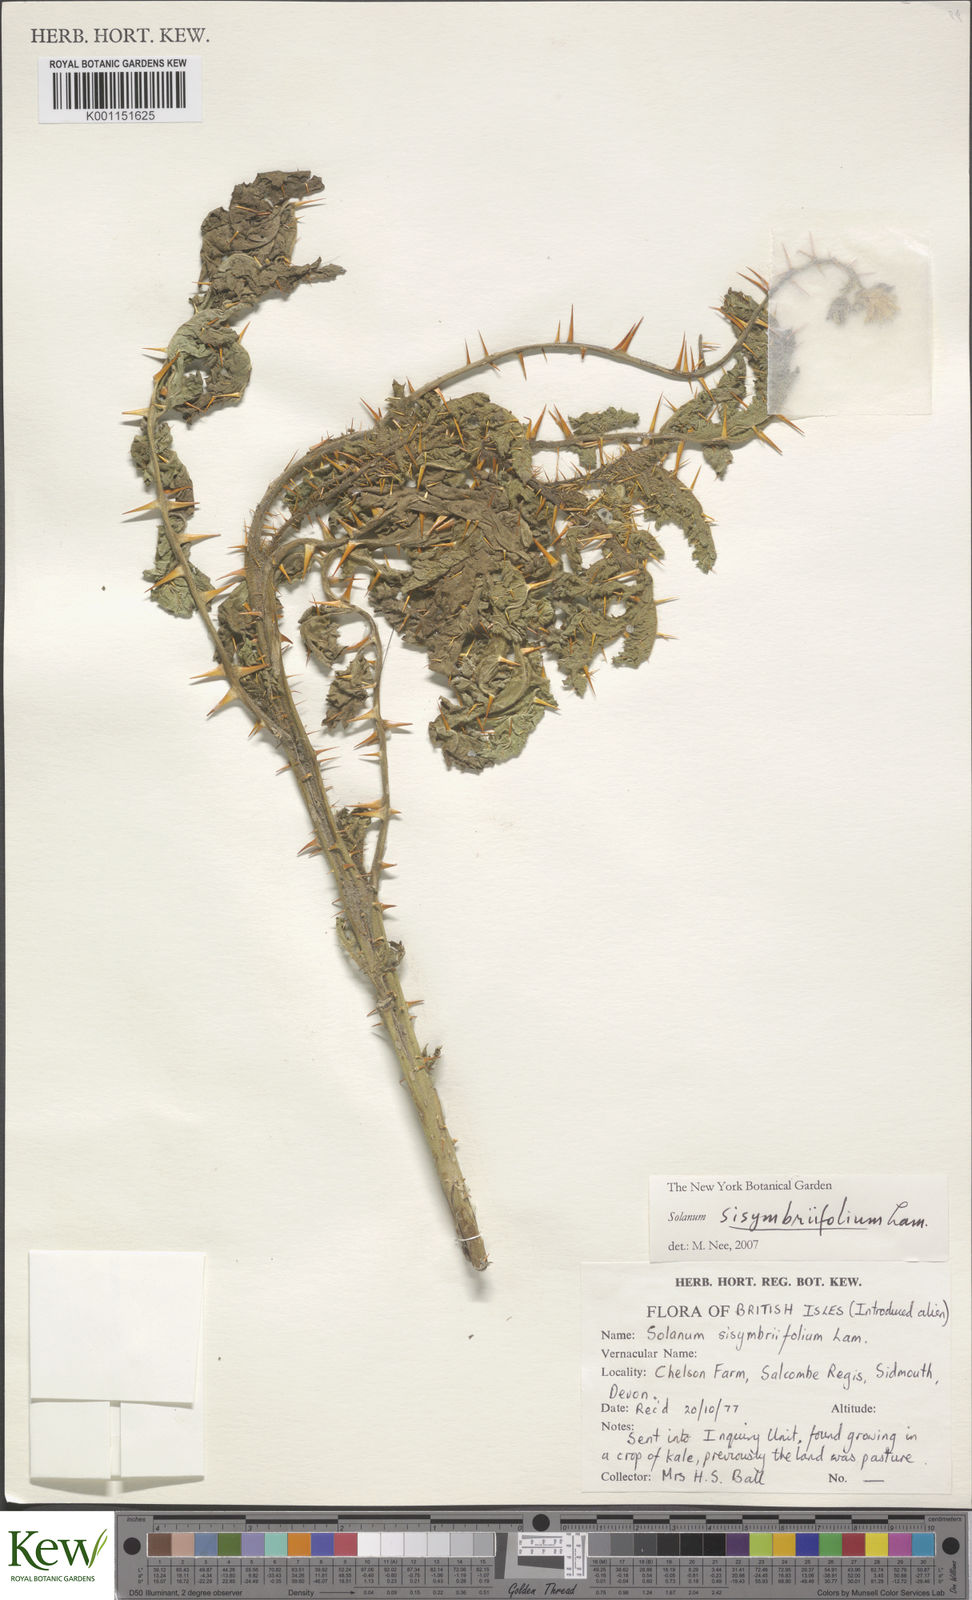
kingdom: Plantae
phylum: Tracheophyta
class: Magnoliopsida
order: Solanales
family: Solanaceae
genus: Solanum
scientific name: Solanum sisymbriifolium
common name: Red buffalo-bur
